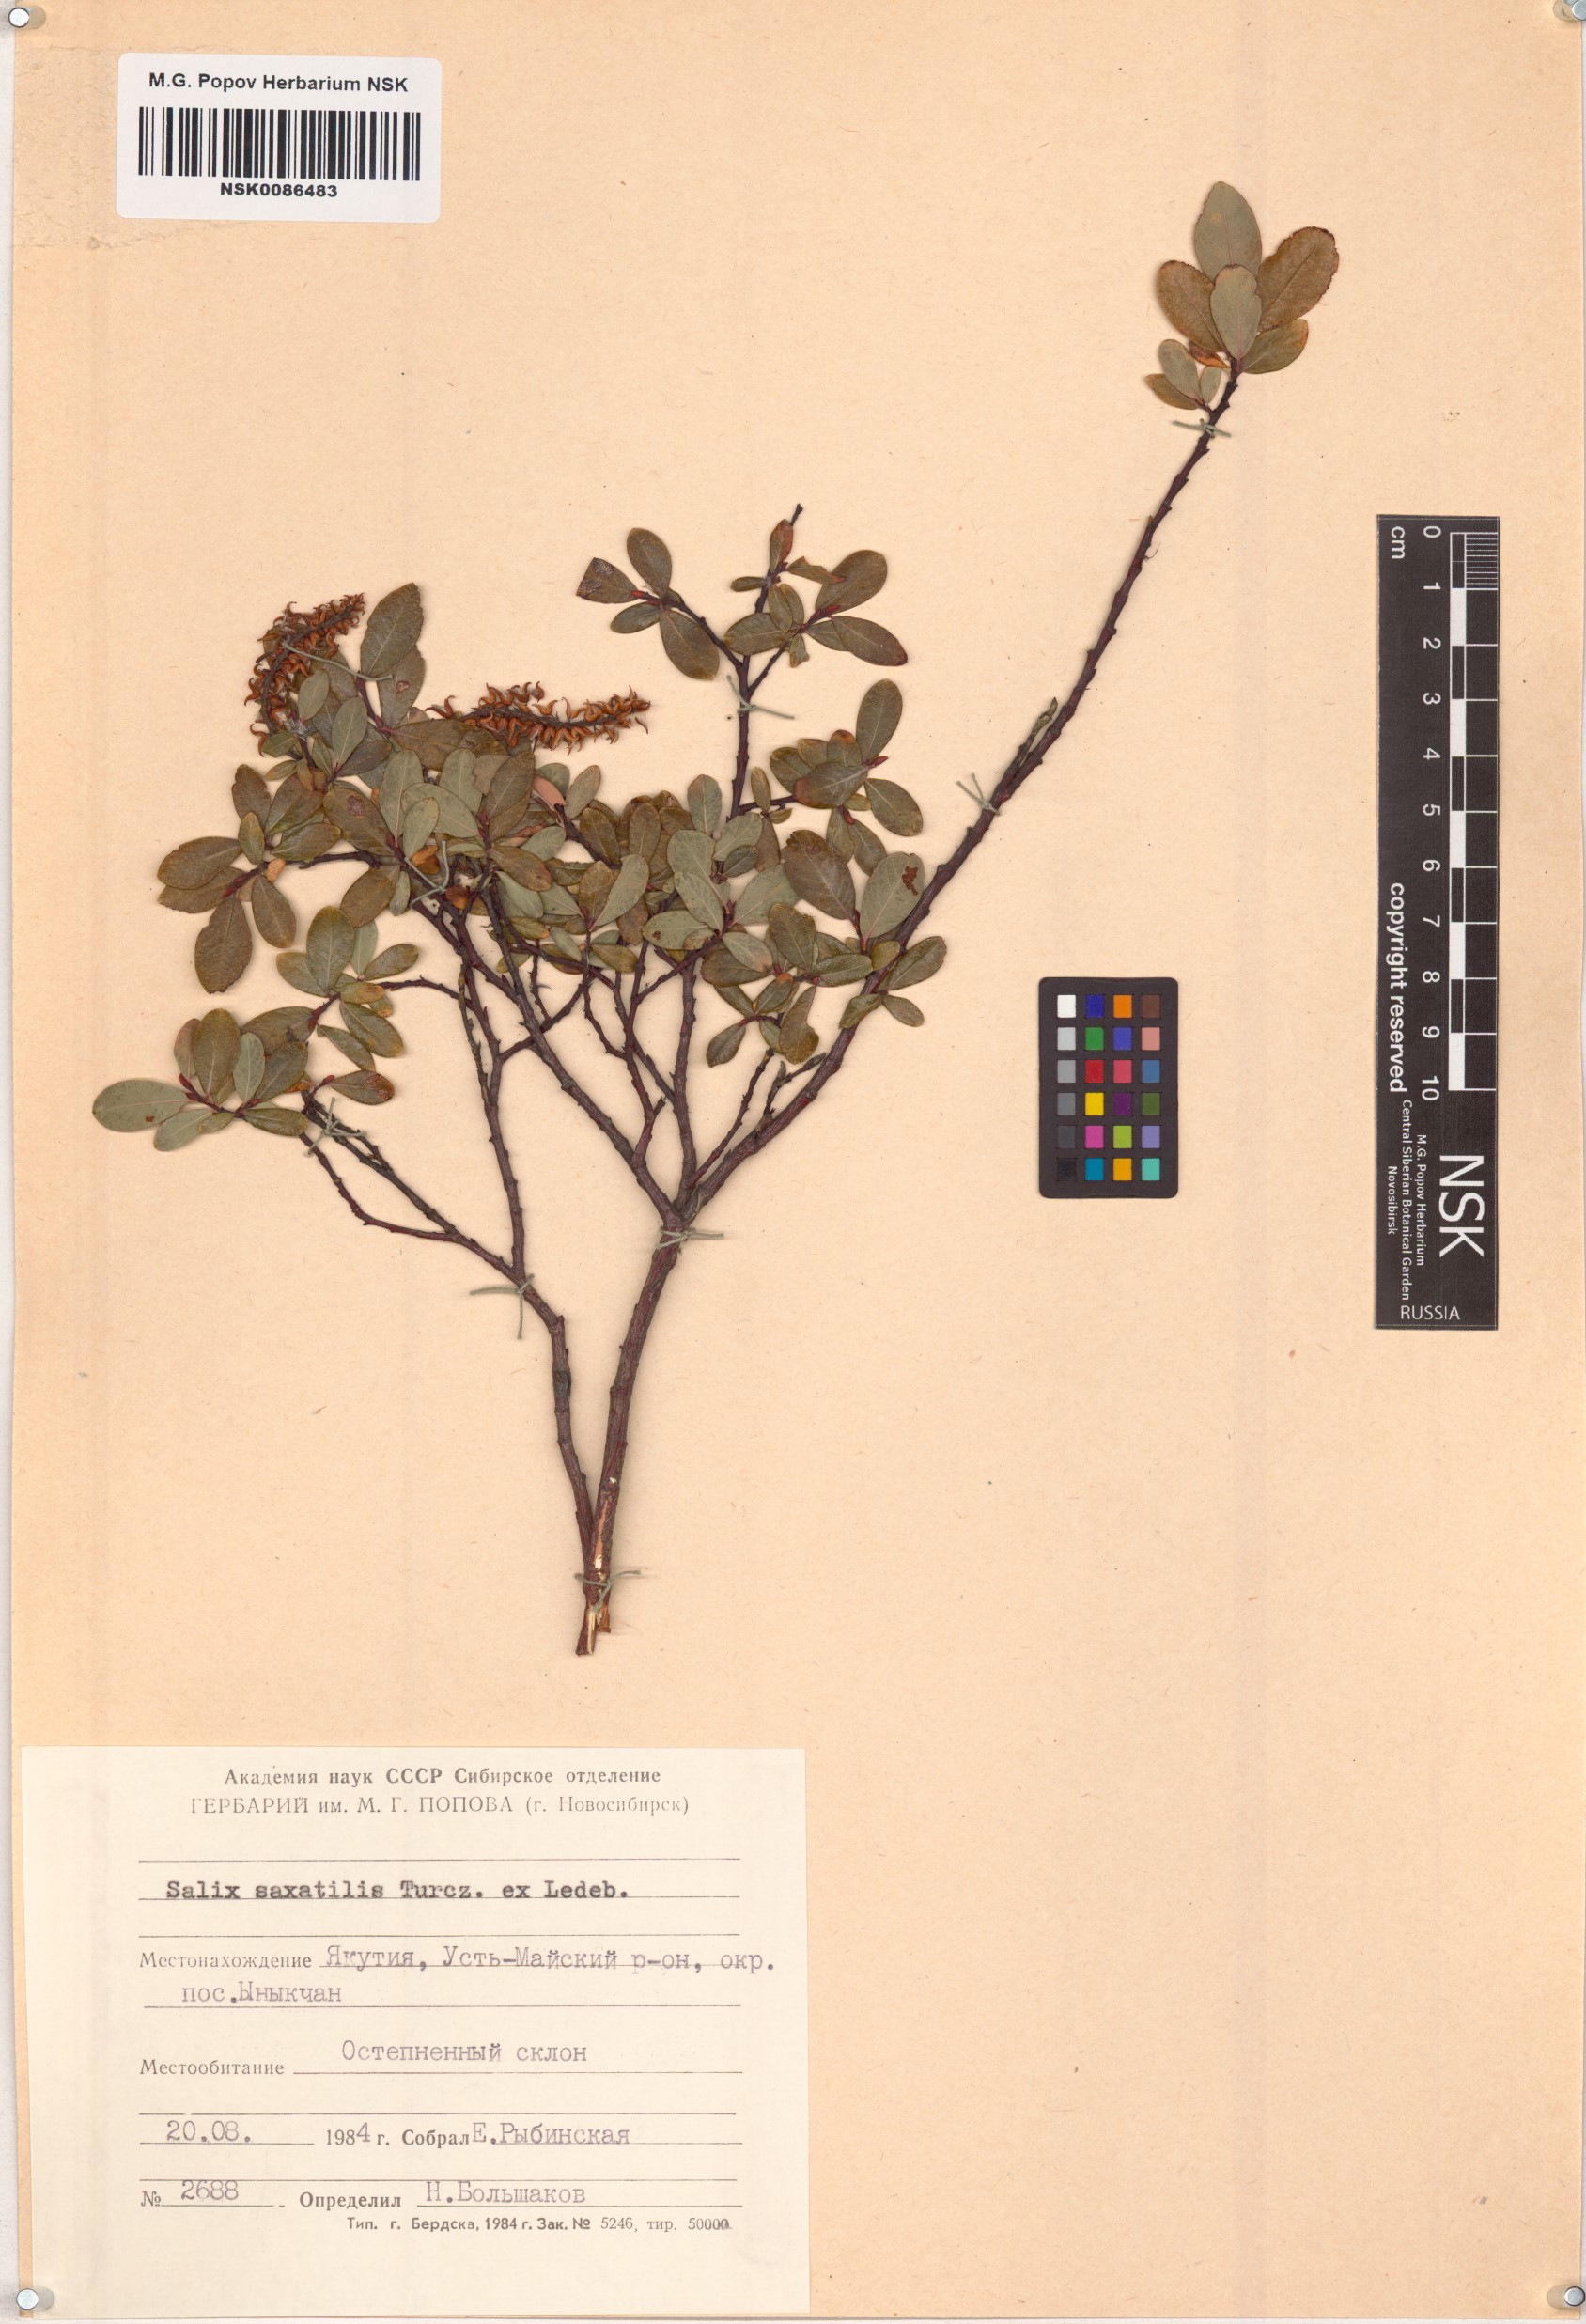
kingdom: Plantae
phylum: Tracheophyta
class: Magnoliopsida
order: Malpighiales
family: Salicaceae
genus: Salix
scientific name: Salix saxatilis
